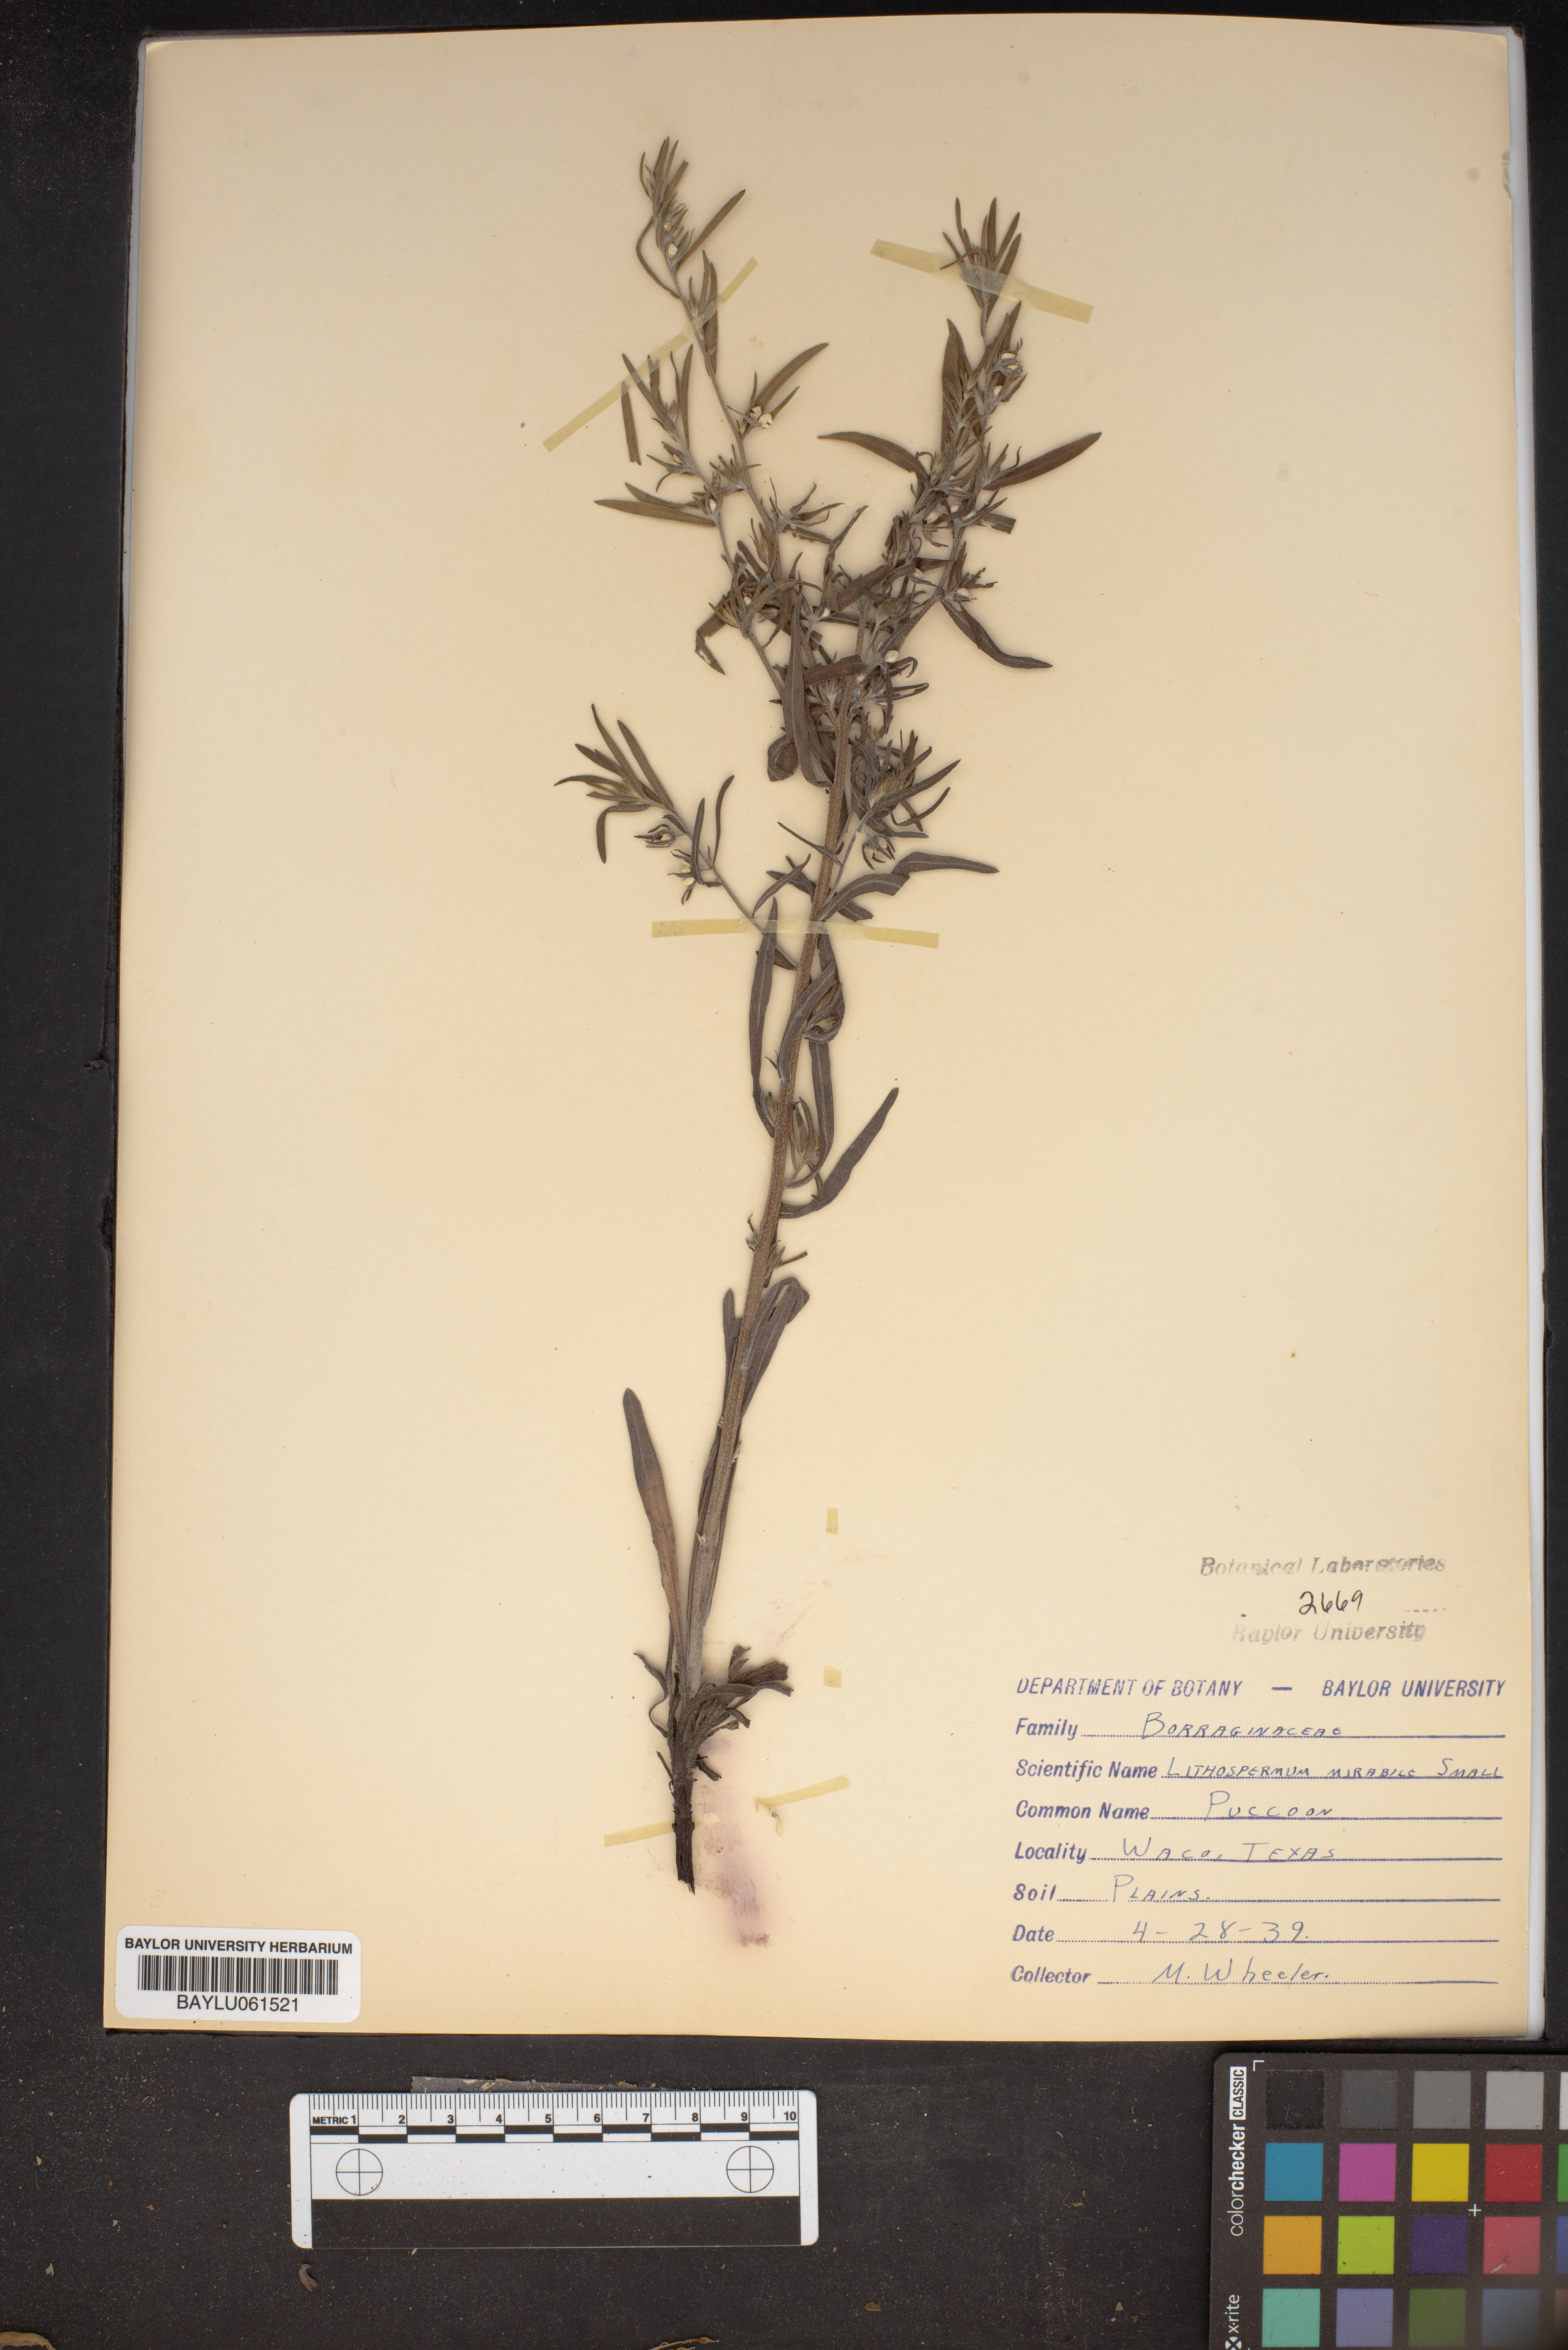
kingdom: Plantae
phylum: Tracheophyta
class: Magnoliopsida
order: Boraginales
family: Boraginaceae
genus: Lithospermum
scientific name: Lithospermum mirabile
